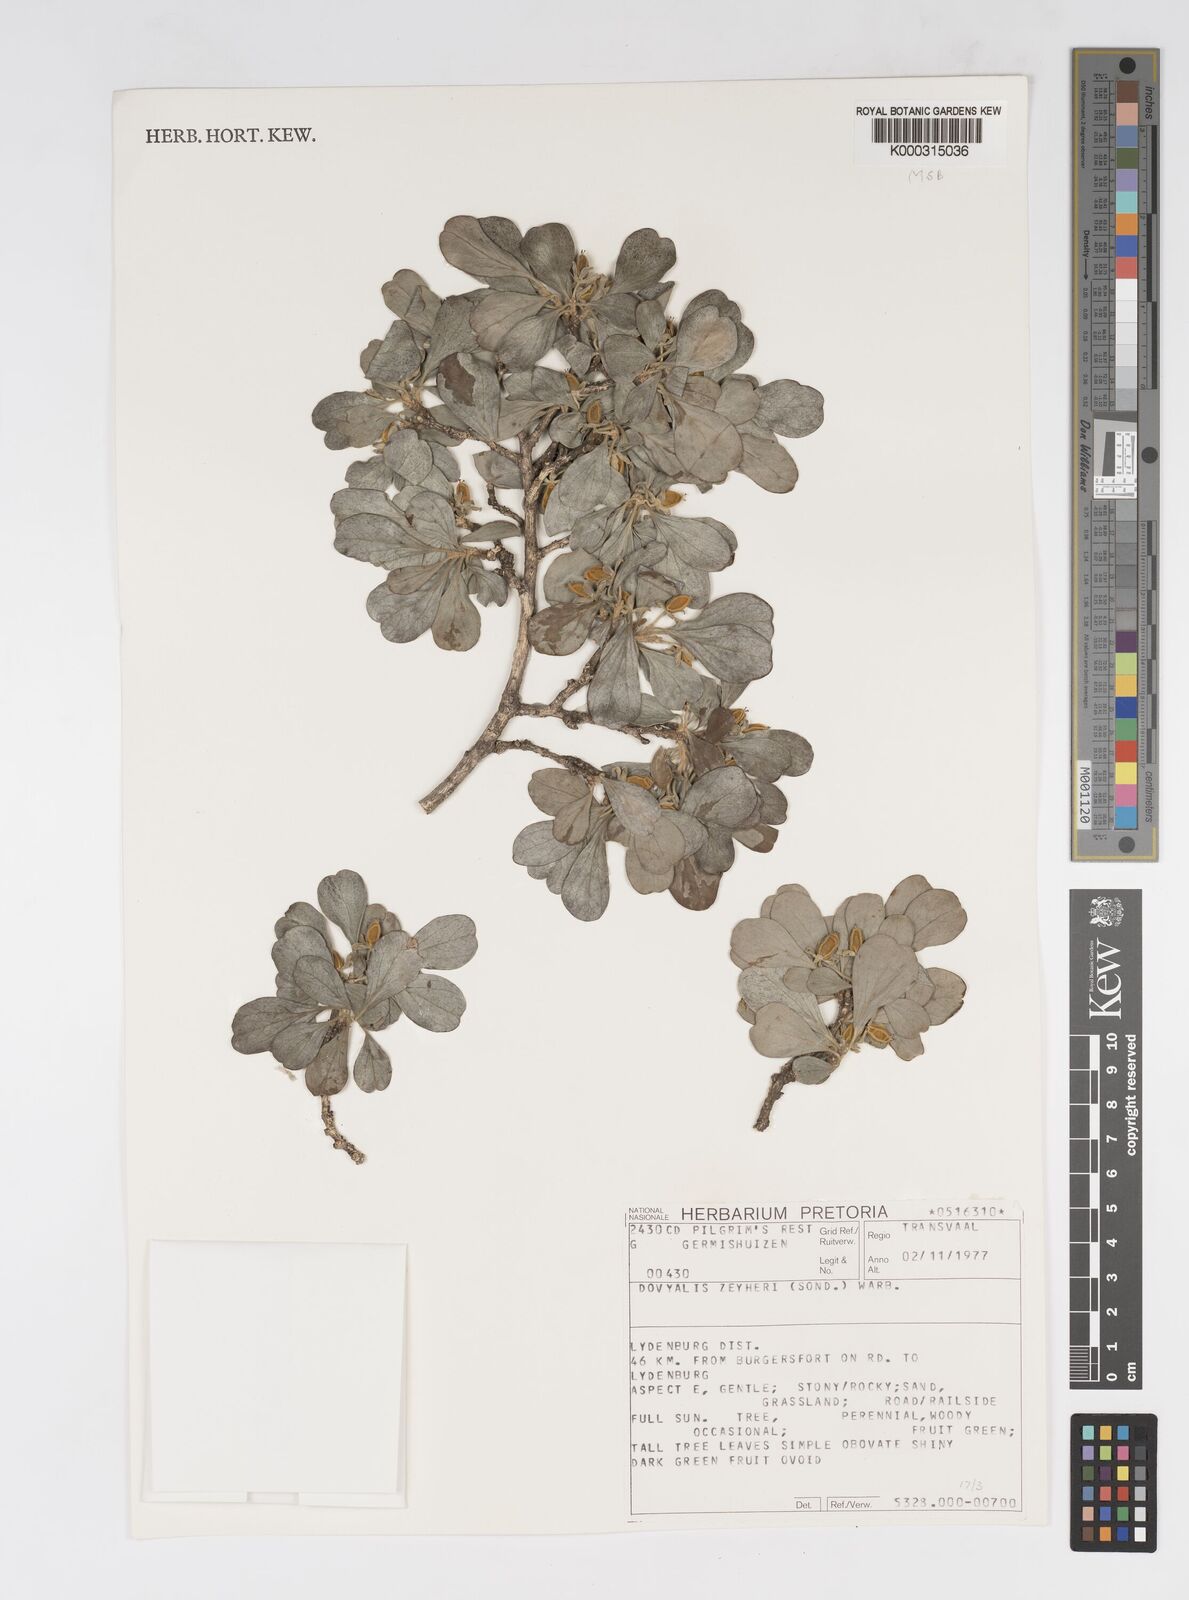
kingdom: Plantae
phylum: Tracheophyta
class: Magnoliopsida
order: Malpighiales
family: Salicaceae
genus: Dovyalis
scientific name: Dovyalis zeyheri
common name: Apricot sourberry
